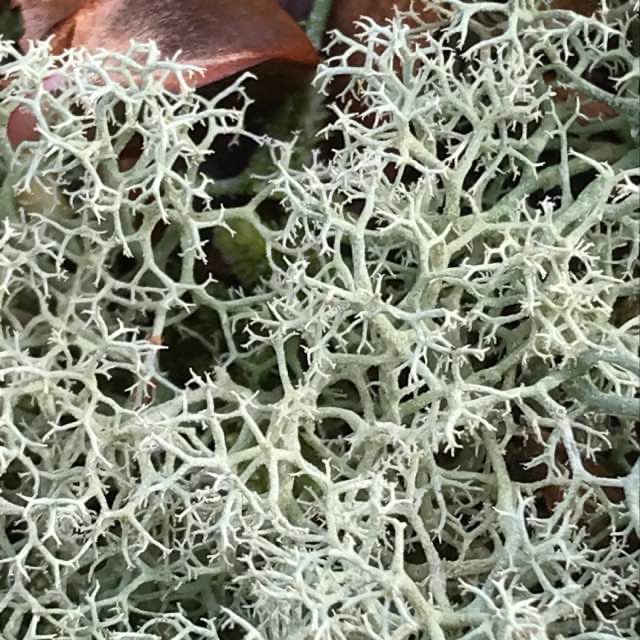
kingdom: Fungi
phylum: Ascomycota
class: Lecanoromycetes
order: Lecanorales
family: Cladoniaceae
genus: Cladonia
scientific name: Cladonia portentosa
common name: Hede-rensdyrlav
